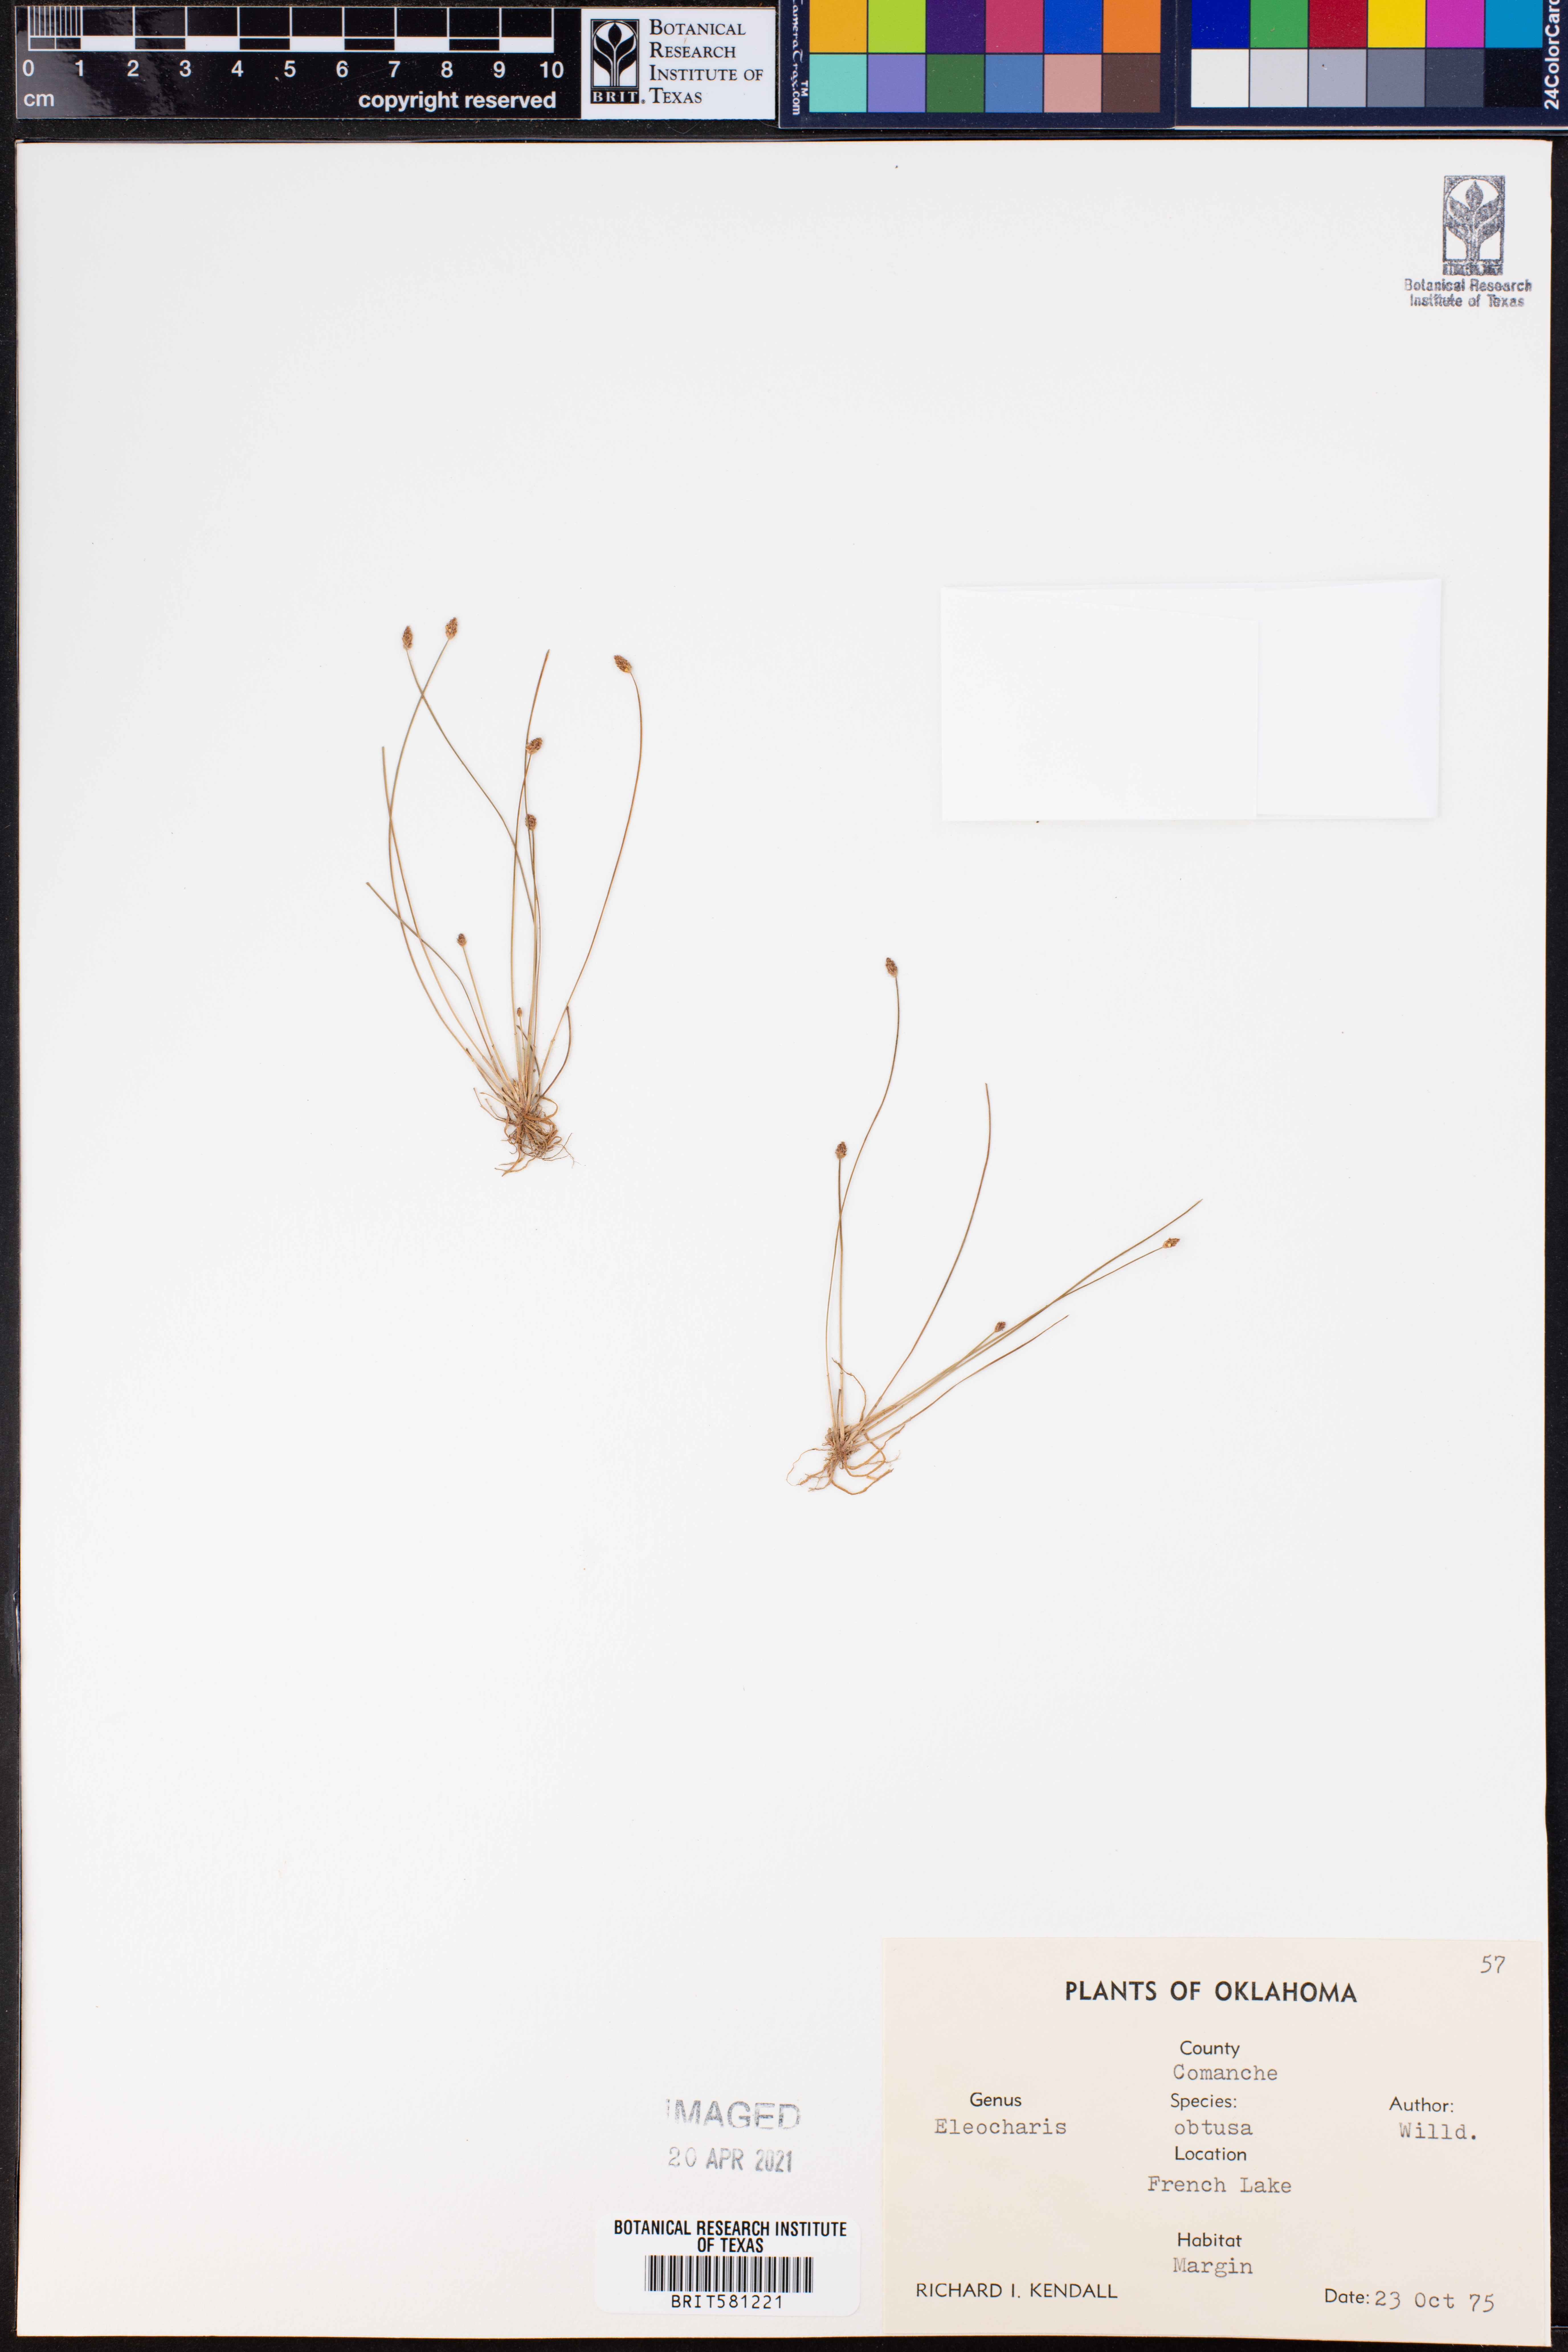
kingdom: Plantae
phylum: Tracheophyta
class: Liliopsida
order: Poales
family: Cyperaceae
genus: Eleocharis
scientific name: Eleocharis obtusa
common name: Blunt spikerush
